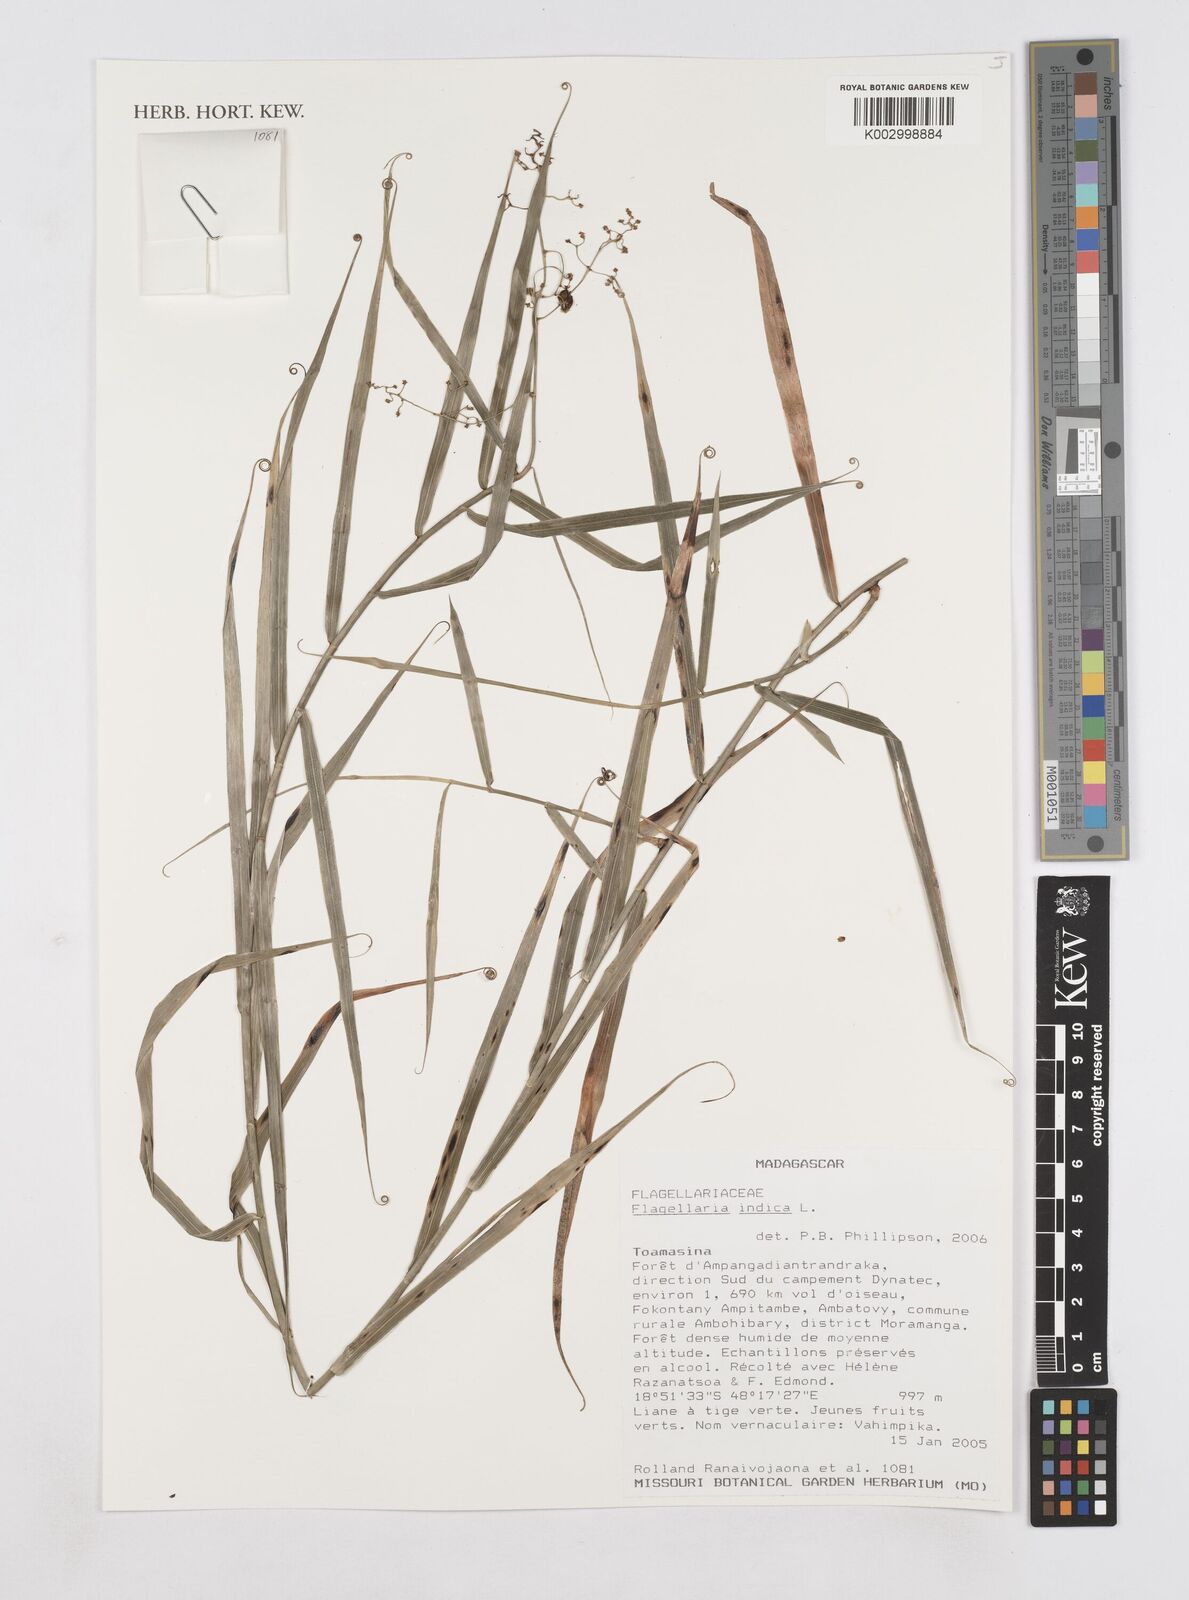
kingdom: Plantae
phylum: Tracheophyta
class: Liliopsida
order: Poales
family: Flagellariaceae
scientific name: Flagellariaceae
